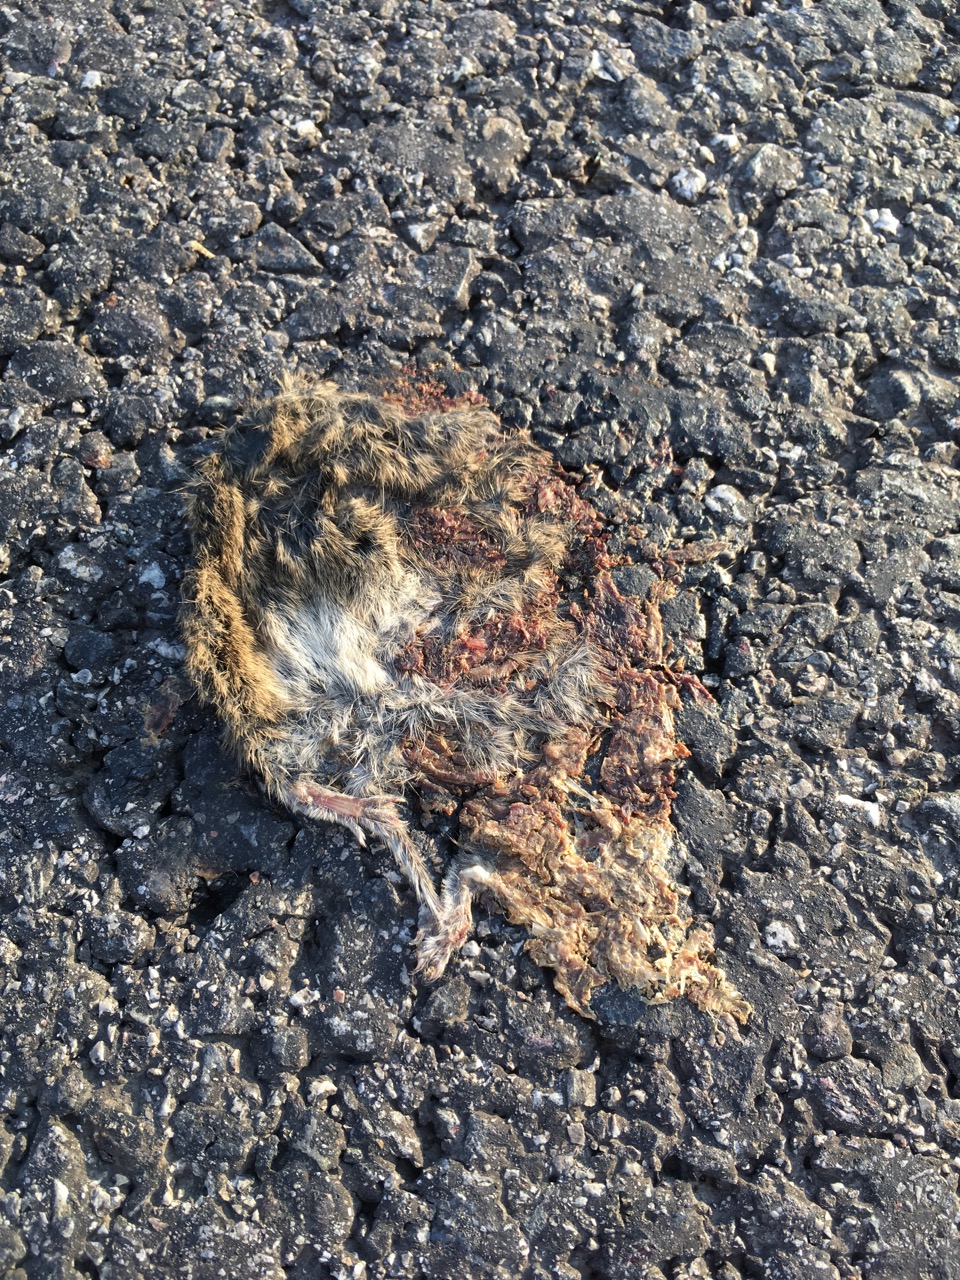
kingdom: Animalia
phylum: Chordata
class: Mammalia
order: Rodentia
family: Cricetidae
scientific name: Cricetidae
